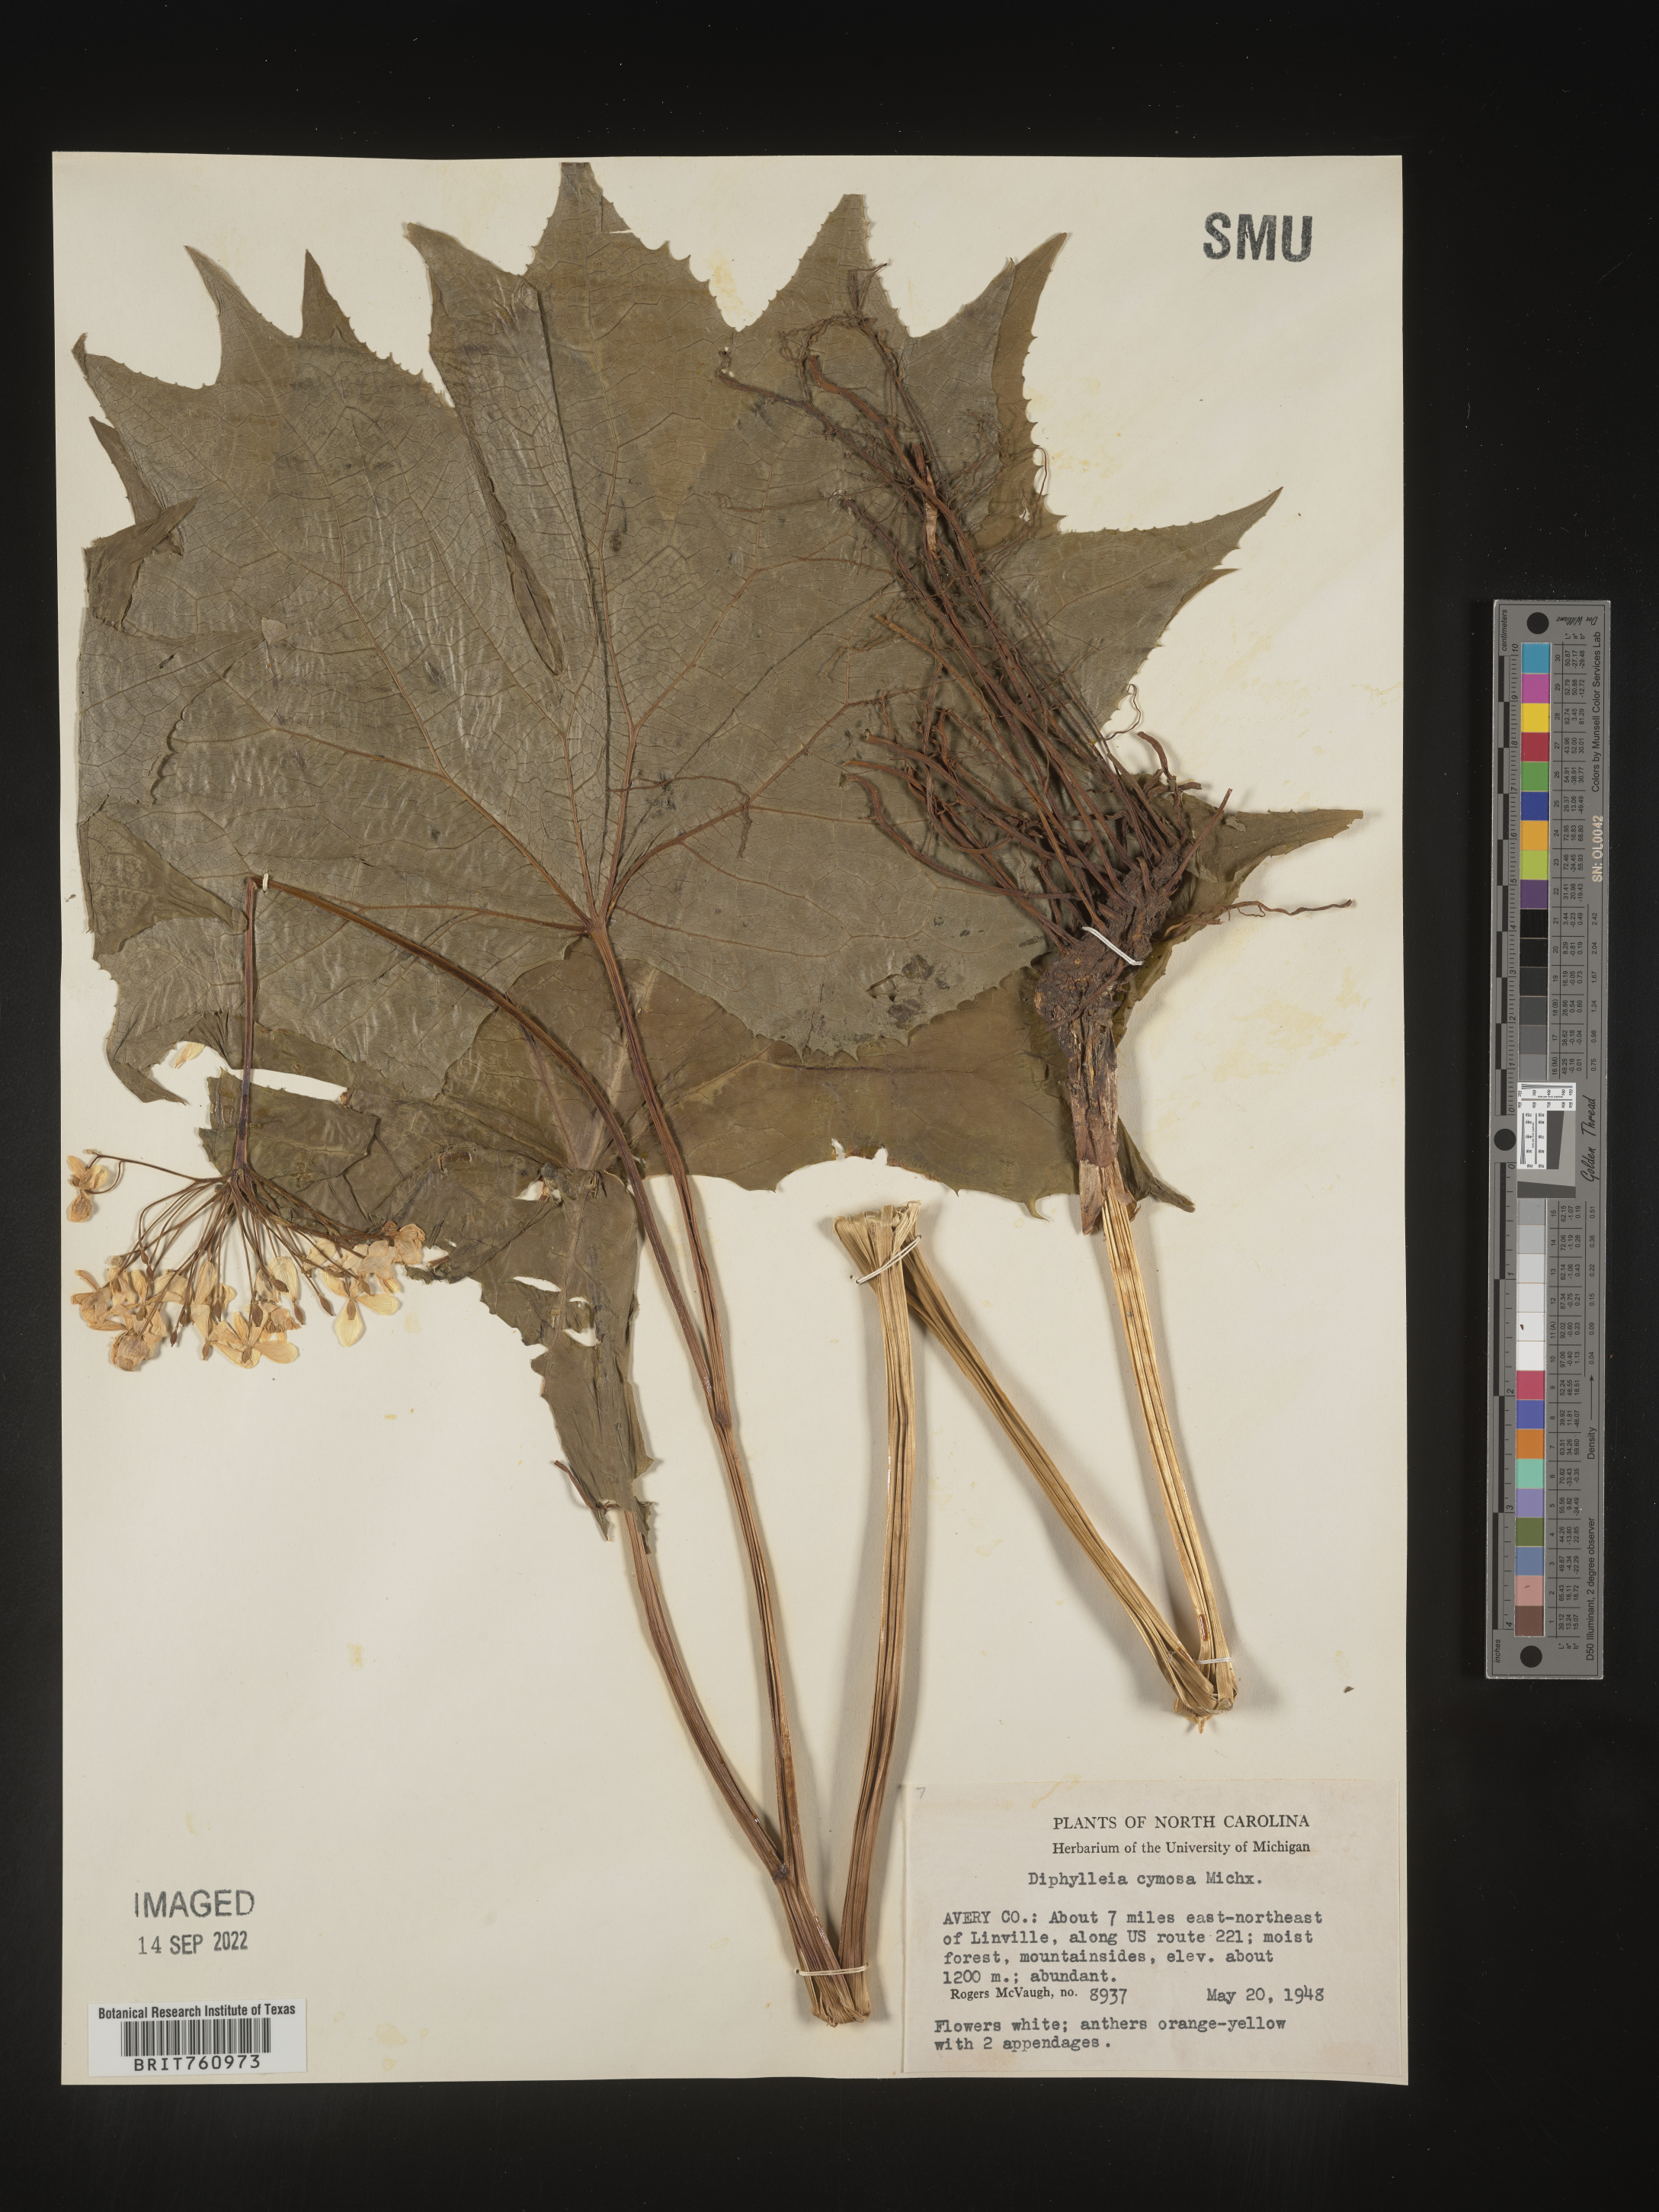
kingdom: Plantae
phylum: Tracheophyta
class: Magnoliopsida
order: Ranunculales
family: Berberidaceae
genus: Diphylleia
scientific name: Diphylleia
